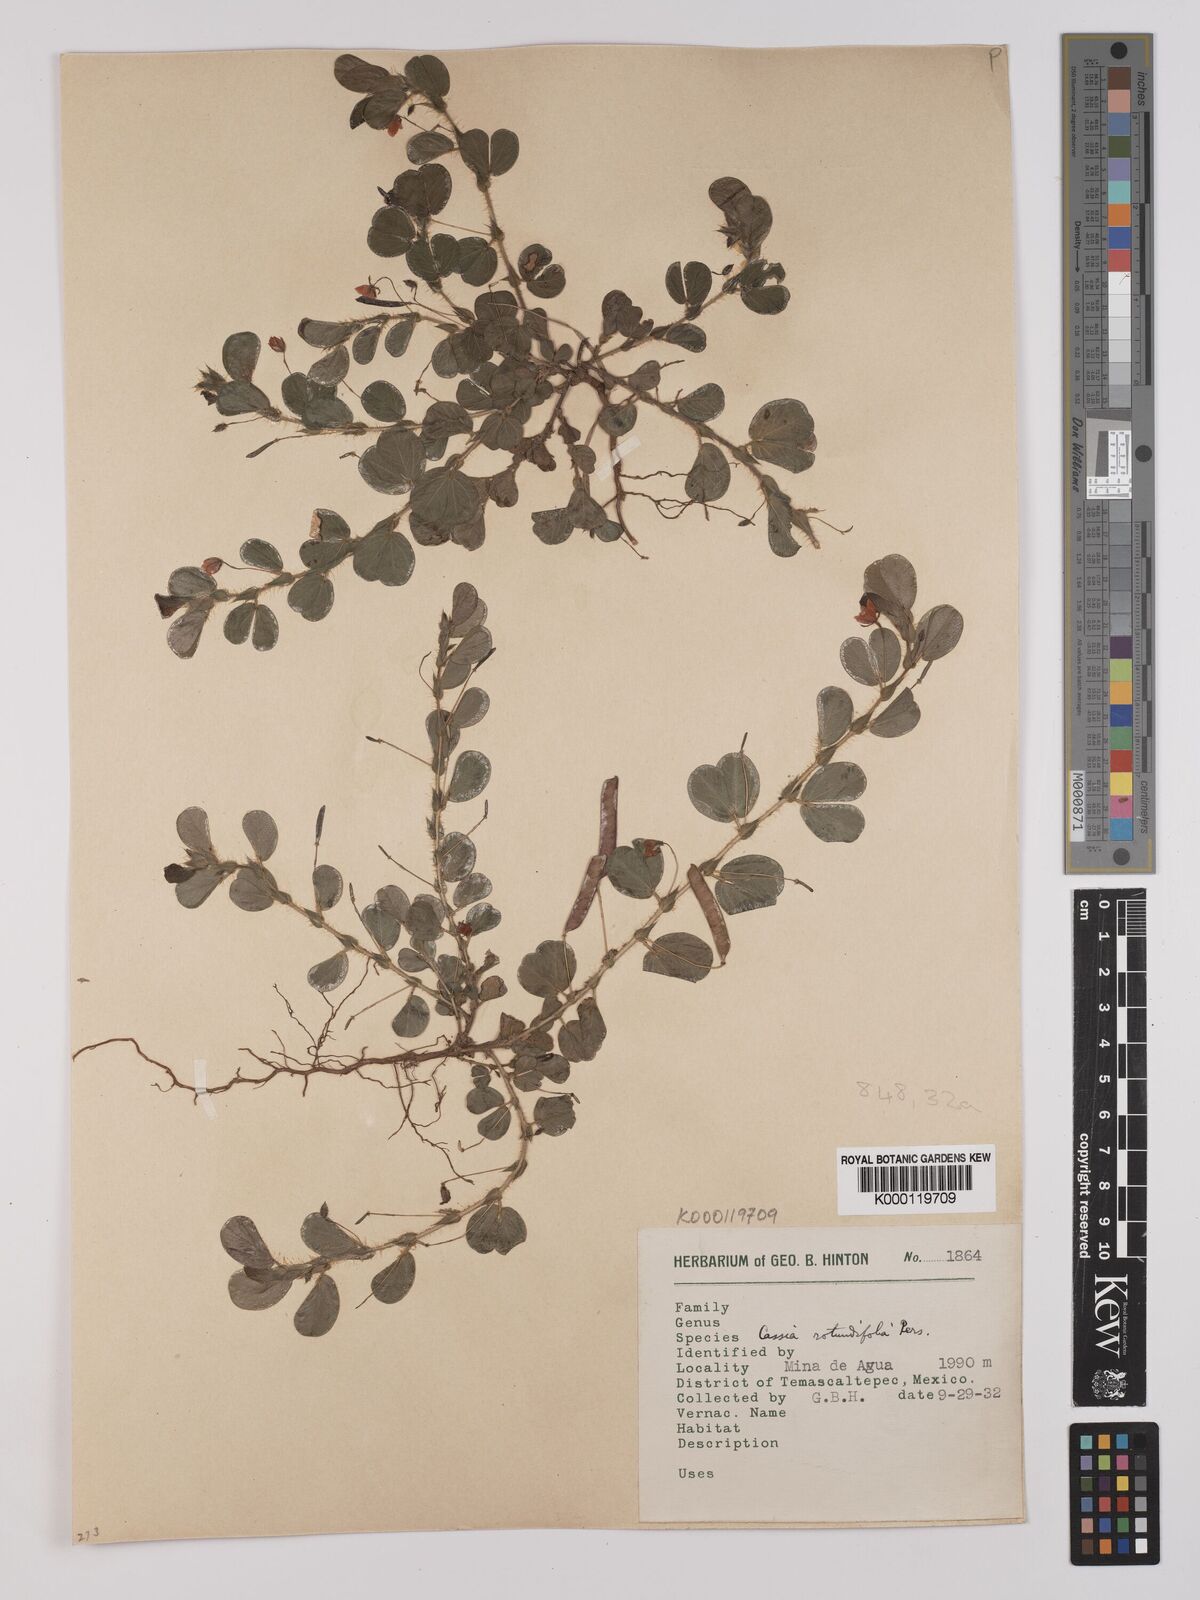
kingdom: Plantae
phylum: Tracheophyta
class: Magnoliopsida
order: Fabales
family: Fabaceae
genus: Chamaecrista
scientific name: Chamaecrista rotundifolia
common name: Round-leaf cassia
